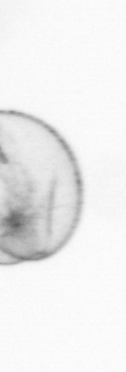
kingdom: Chromista
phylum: Myzozoa
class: Dinophyceae
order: Noctilucales
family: Noctilucaceae
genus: Noctiluca
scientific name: Noctiluca scintillans
